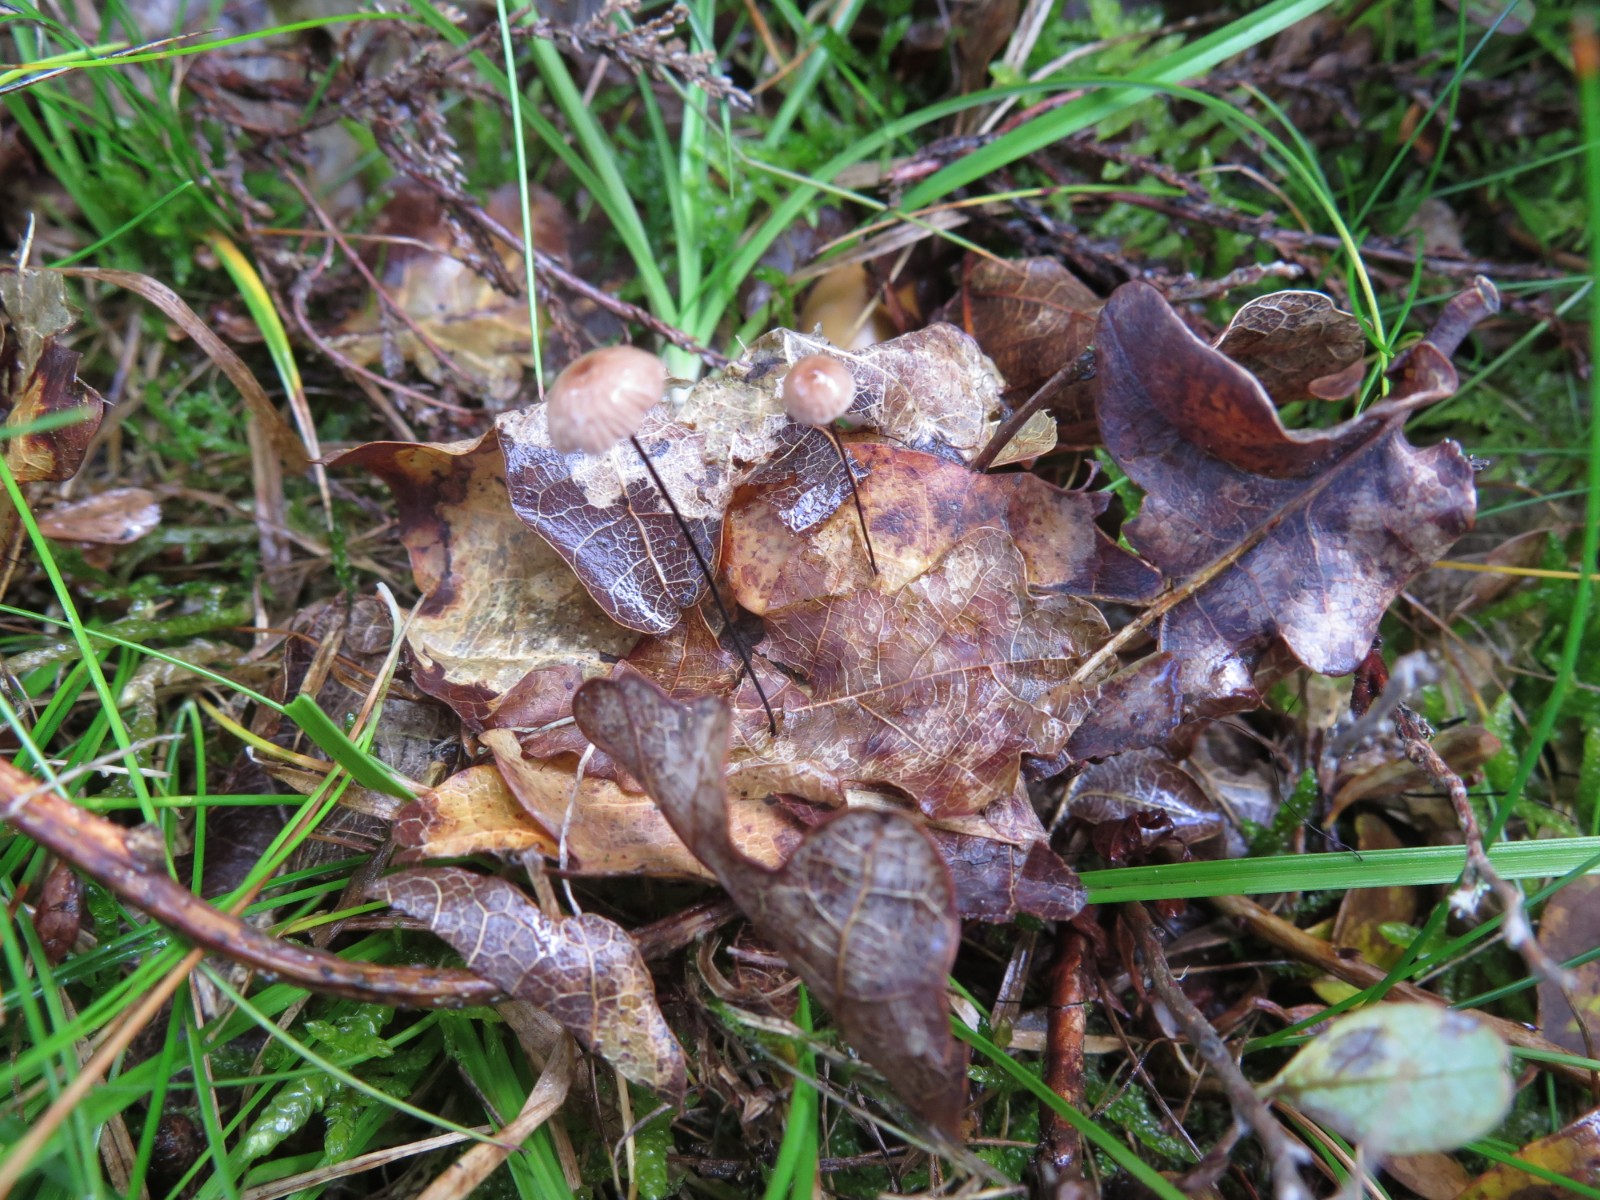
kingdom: Fungi
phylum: Basidiomycota
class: Agaricomycetes
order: Agaricales
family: Omphalotaceae
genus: Gymnopus
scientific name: Gymnopus androsaceus
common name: trådstokket fladhat
